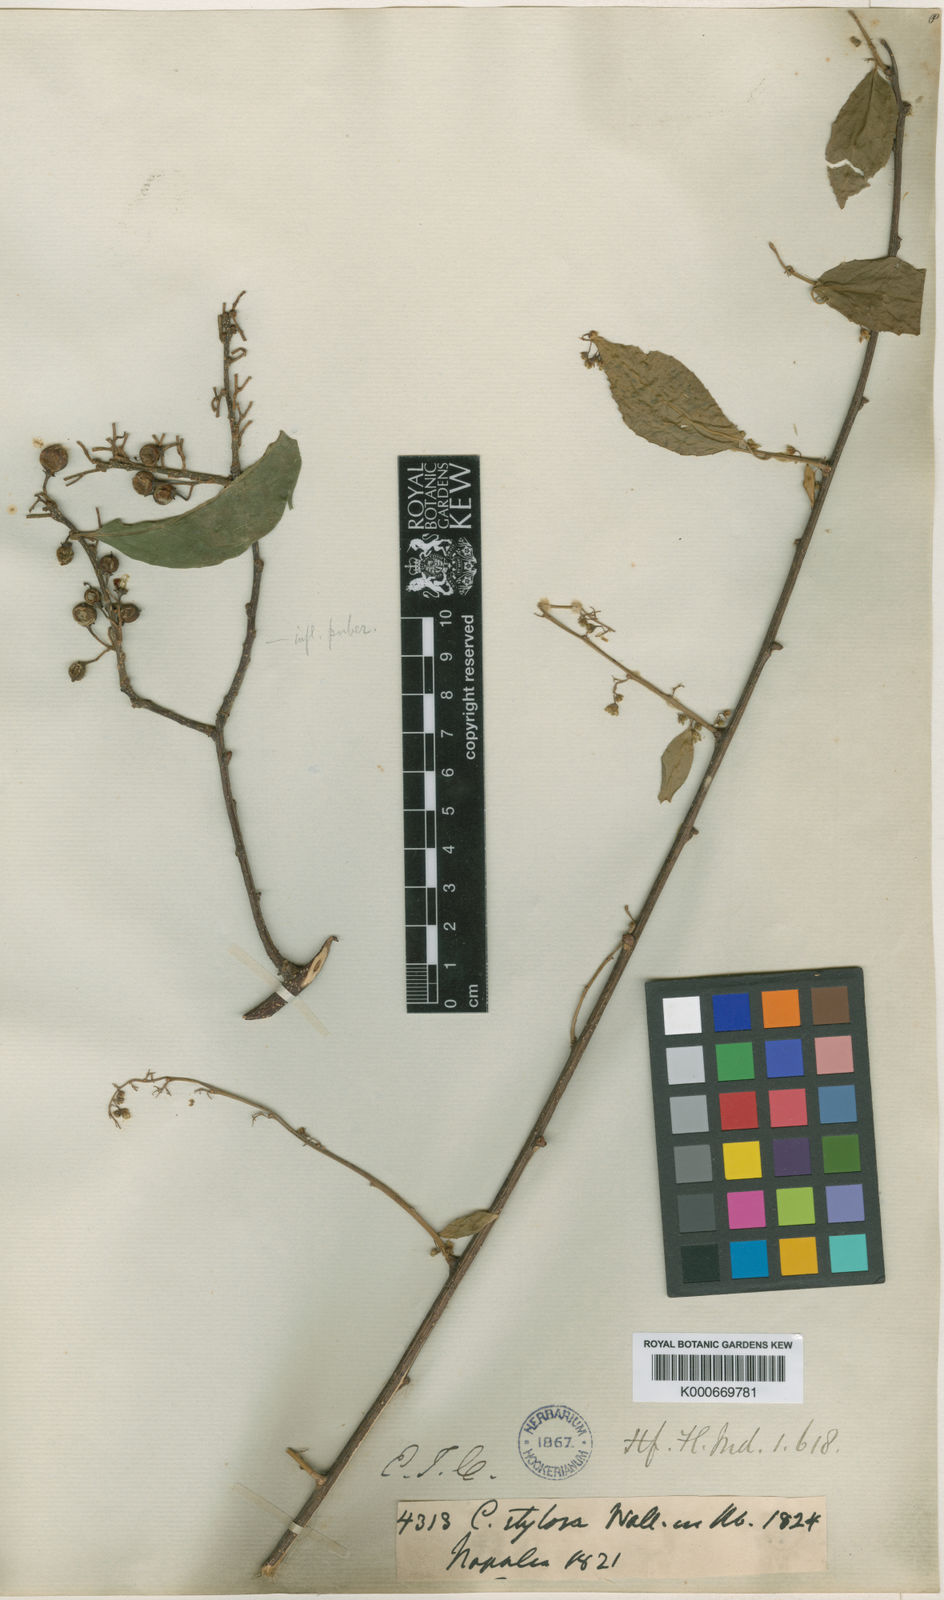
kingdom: Plantae
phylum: Tracheophyta
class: Magnoliopsida
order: Celastrales
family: Celastraceae
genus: Celastrus
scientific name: Celastrus stylosus
